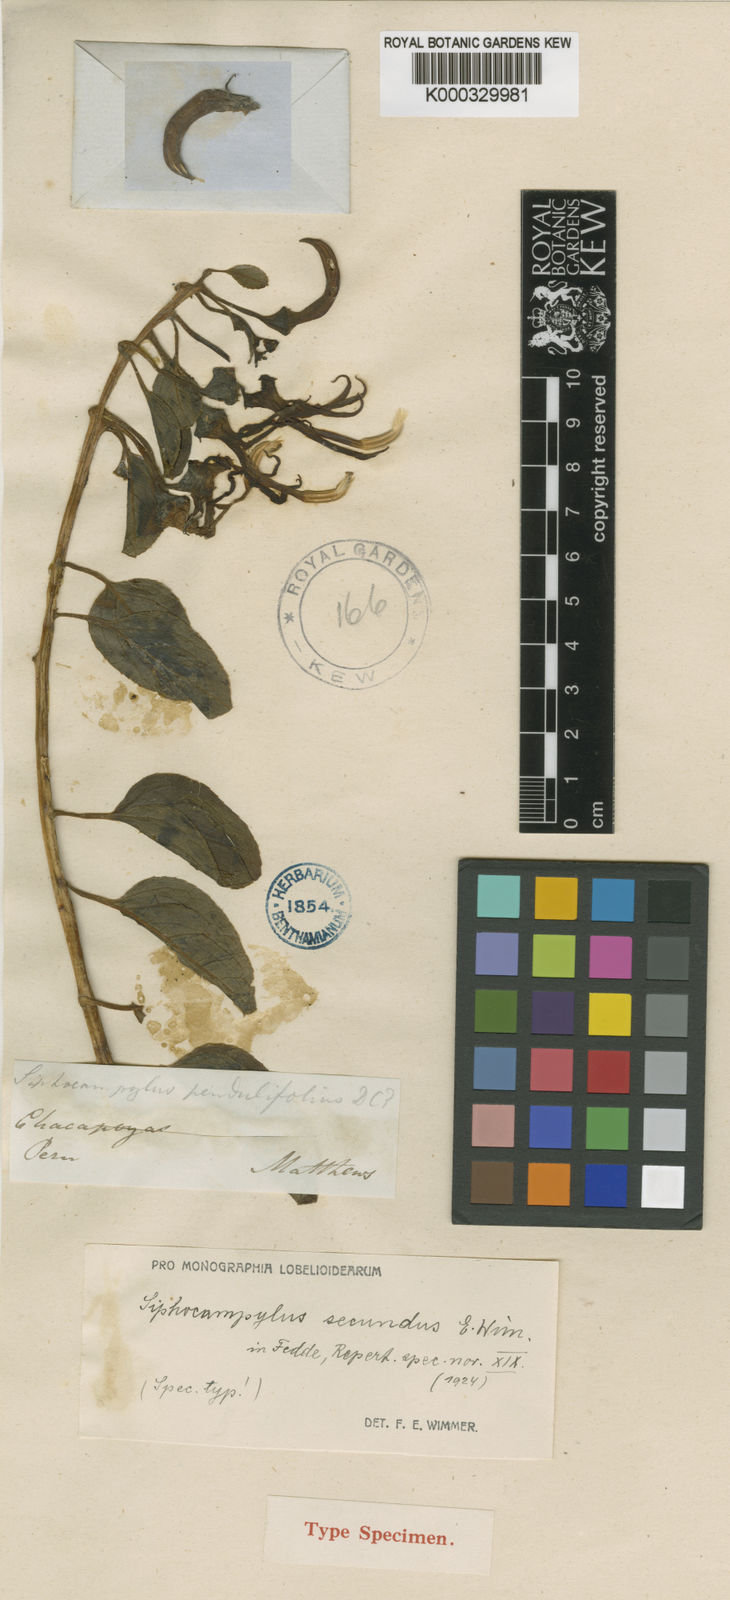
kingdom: Plantae
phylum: Tracheophyta
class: Magnoliopsida
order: Asterales
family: Campanulaceae
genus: Siphocampylus
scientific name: Siphocampylus secundus
